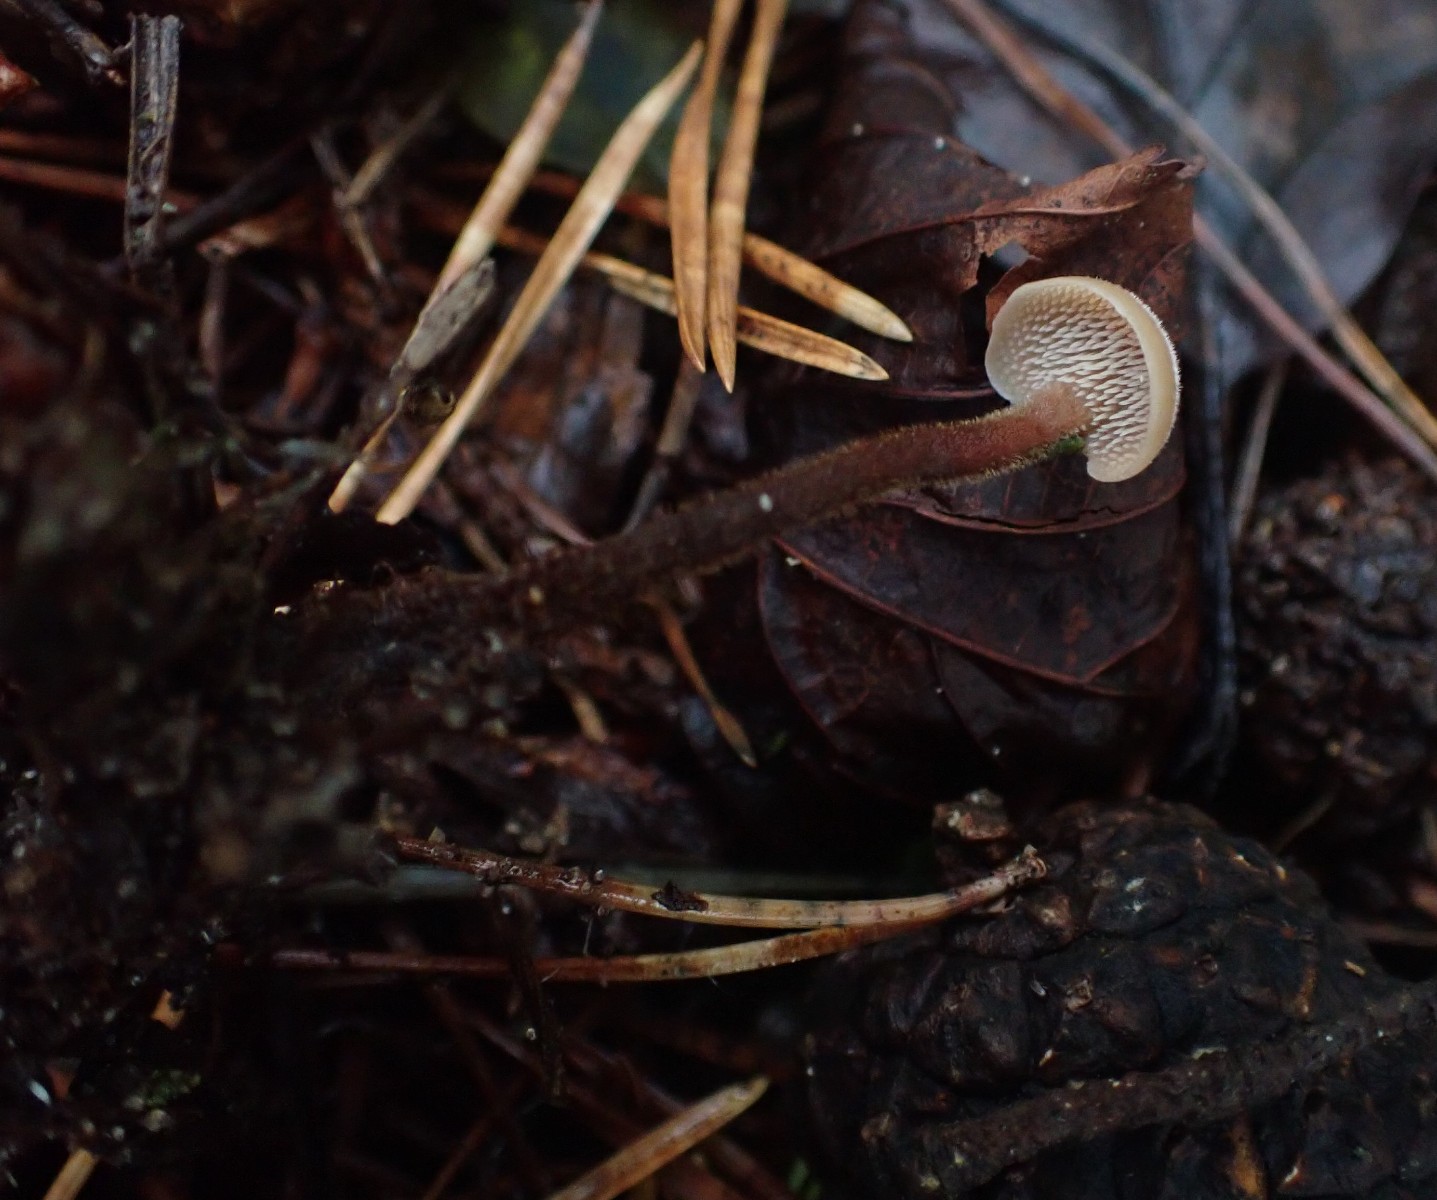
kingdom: Fungi
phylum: Basidiomycota
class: Agaricomycetes
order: Russulales
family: Auriscalpiaceae
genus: Auriscalpium
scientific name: Auriscalpium vulgare
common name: koglepigsvamp
